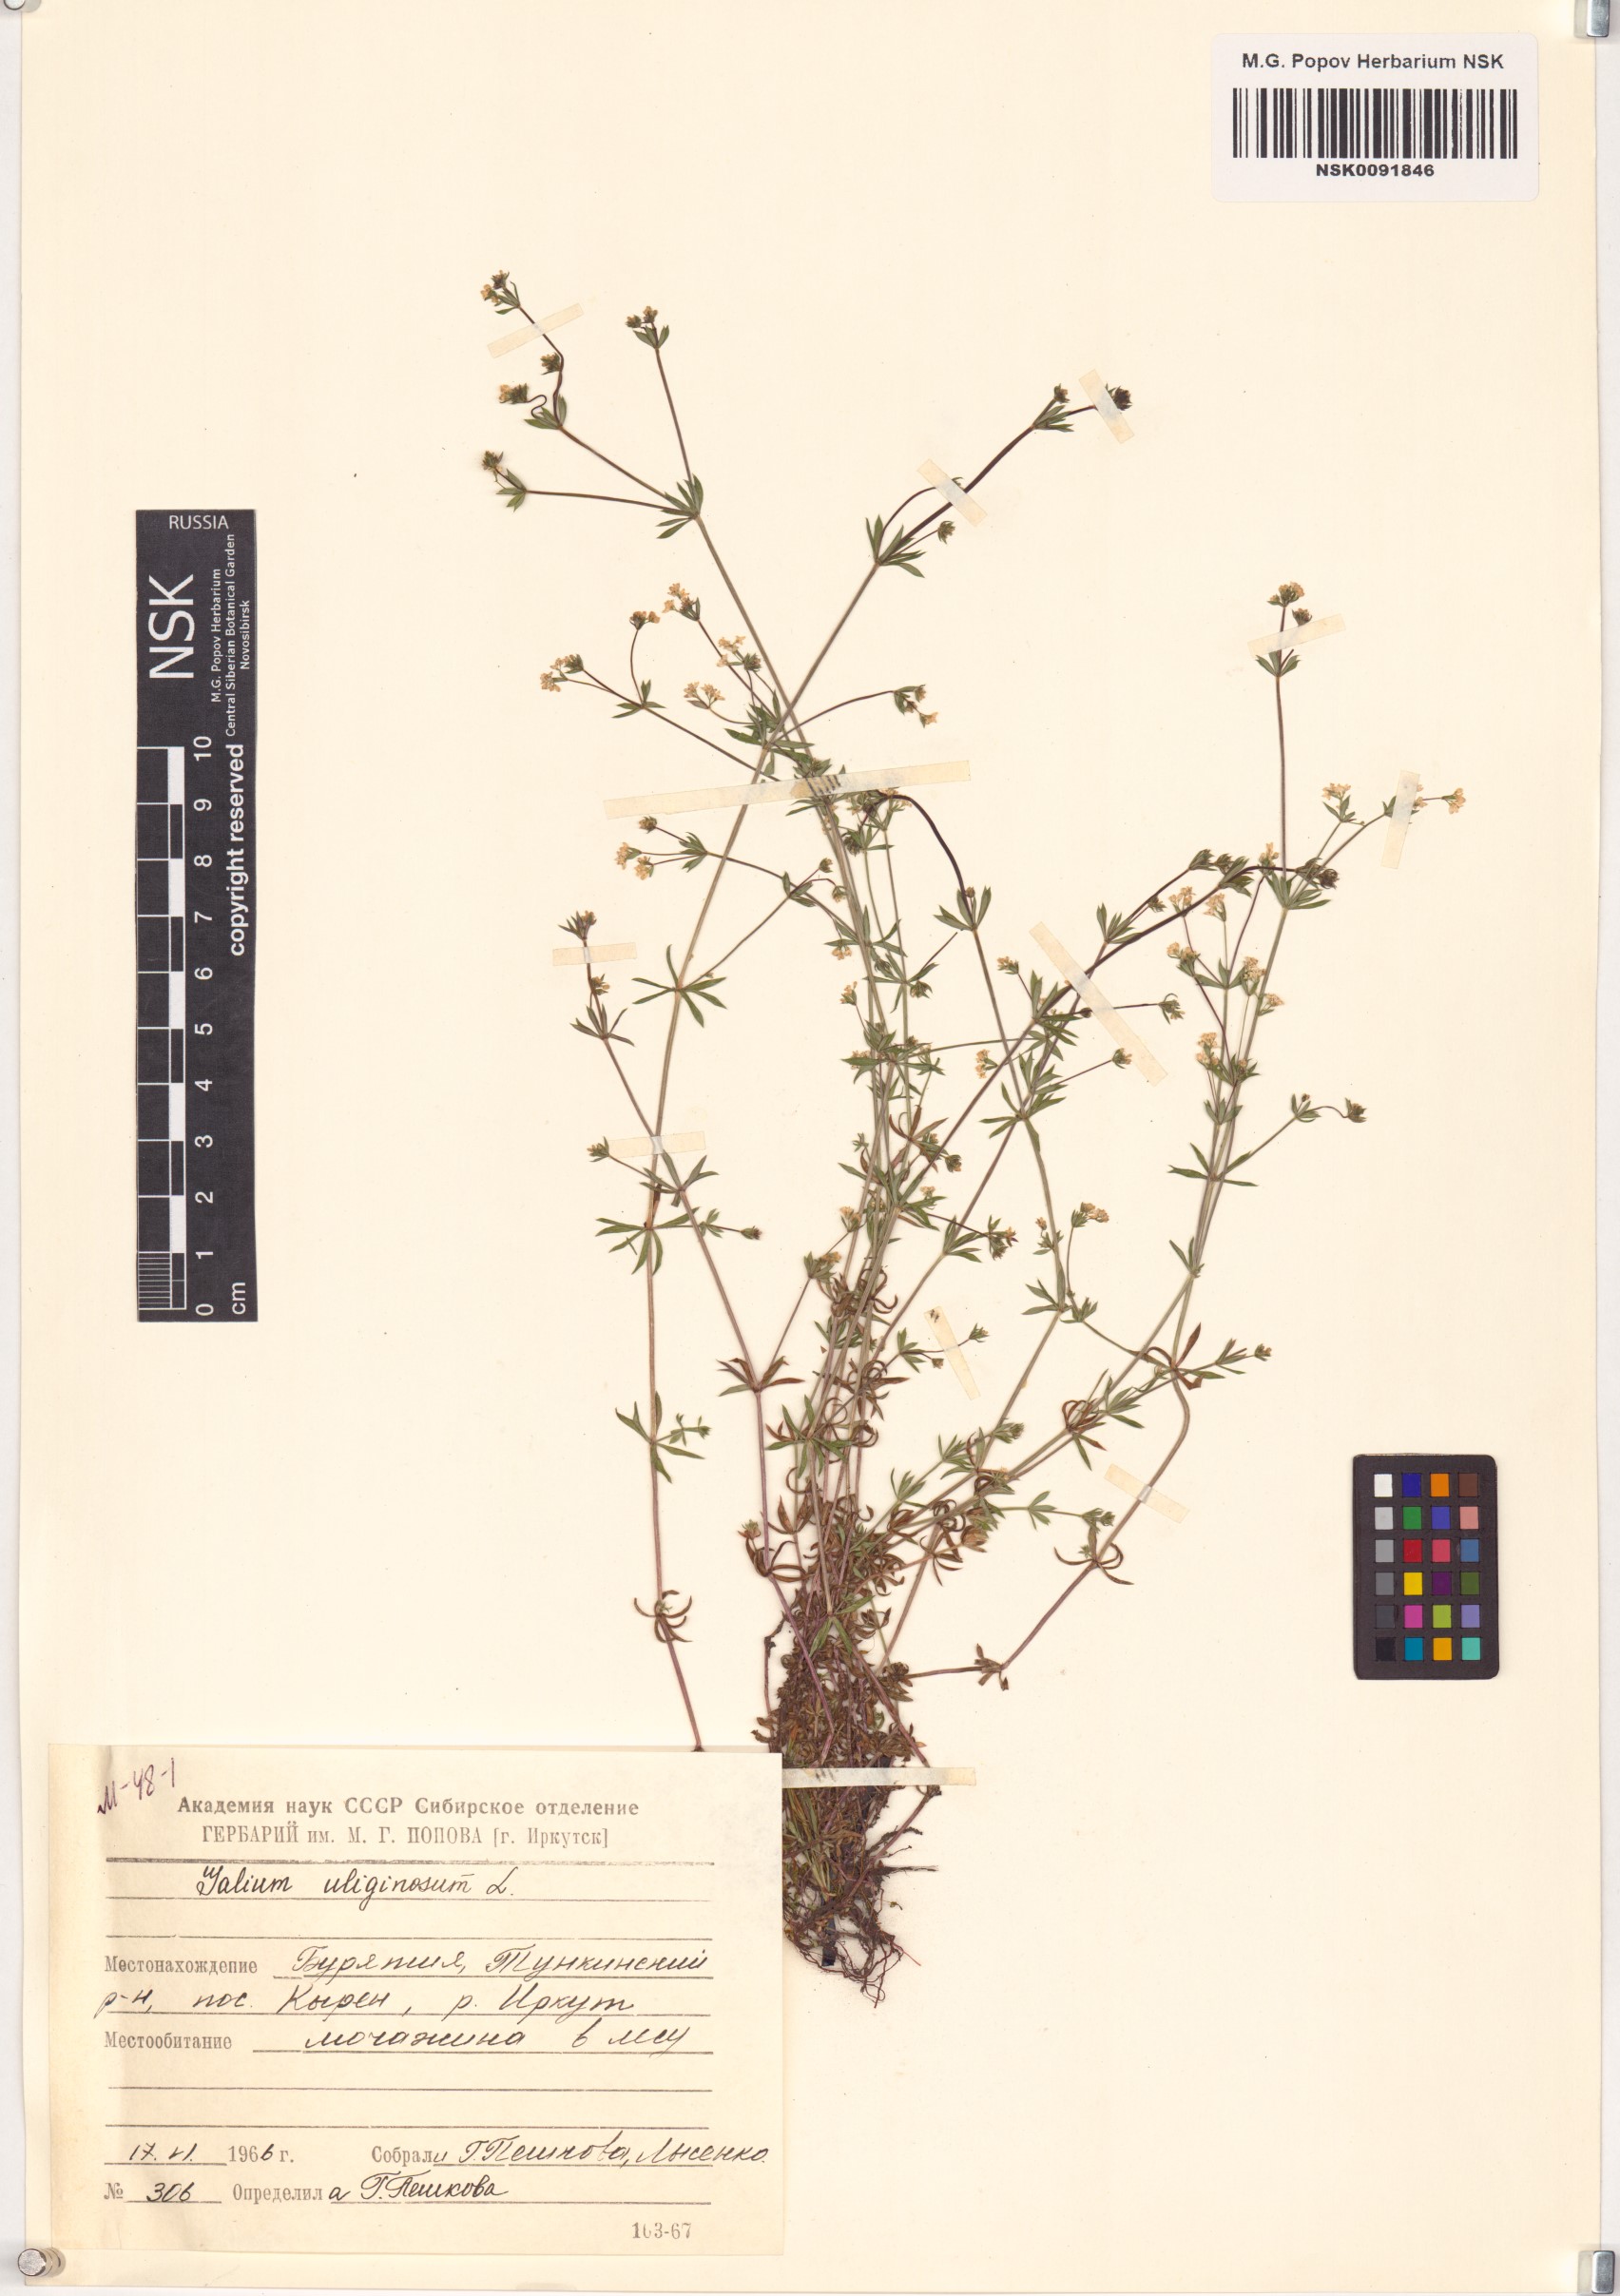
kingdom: Plantae
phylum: Tracheophyta
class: Magnoliopsida
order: Gentianales
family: Rubiaceae
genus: Galium
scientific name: Galium uliginosum
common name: Fen bedstraw
